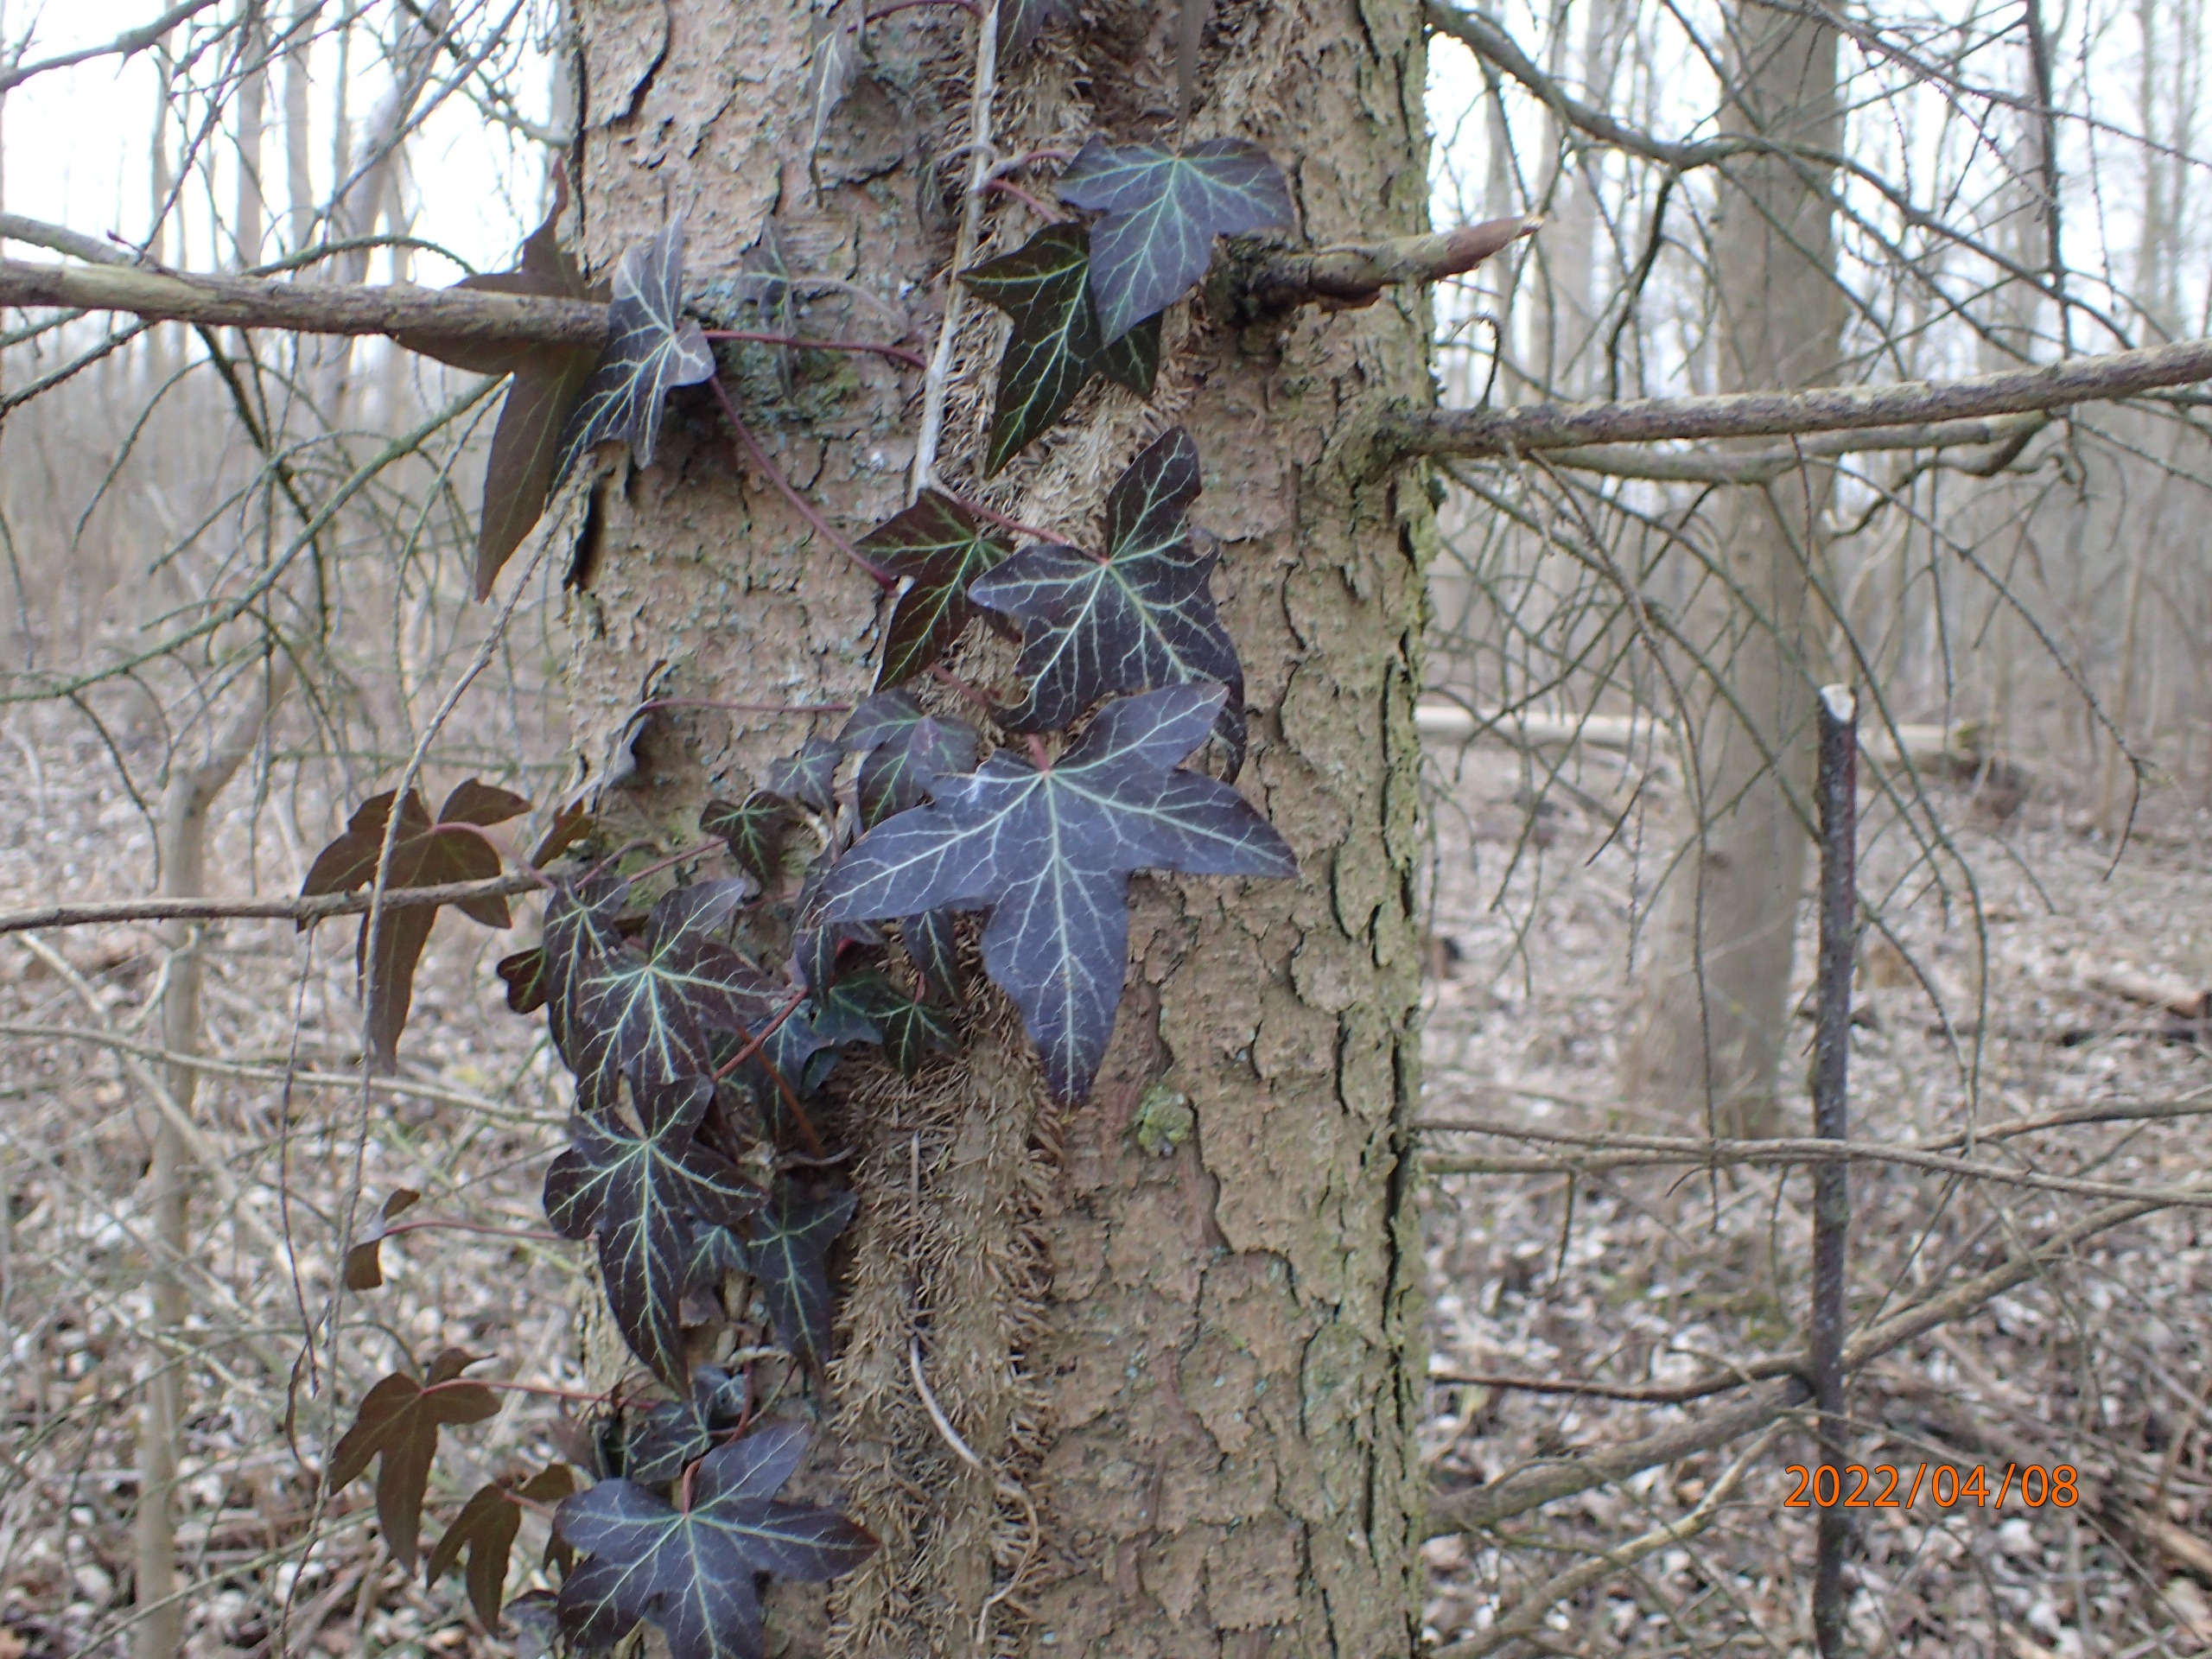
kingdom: Plantae
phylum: Tracheophyta
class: Magnoliopsida
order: Apiales
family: Araliaceae
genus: Hedera
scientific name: Hedera helix
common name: Vedbend
